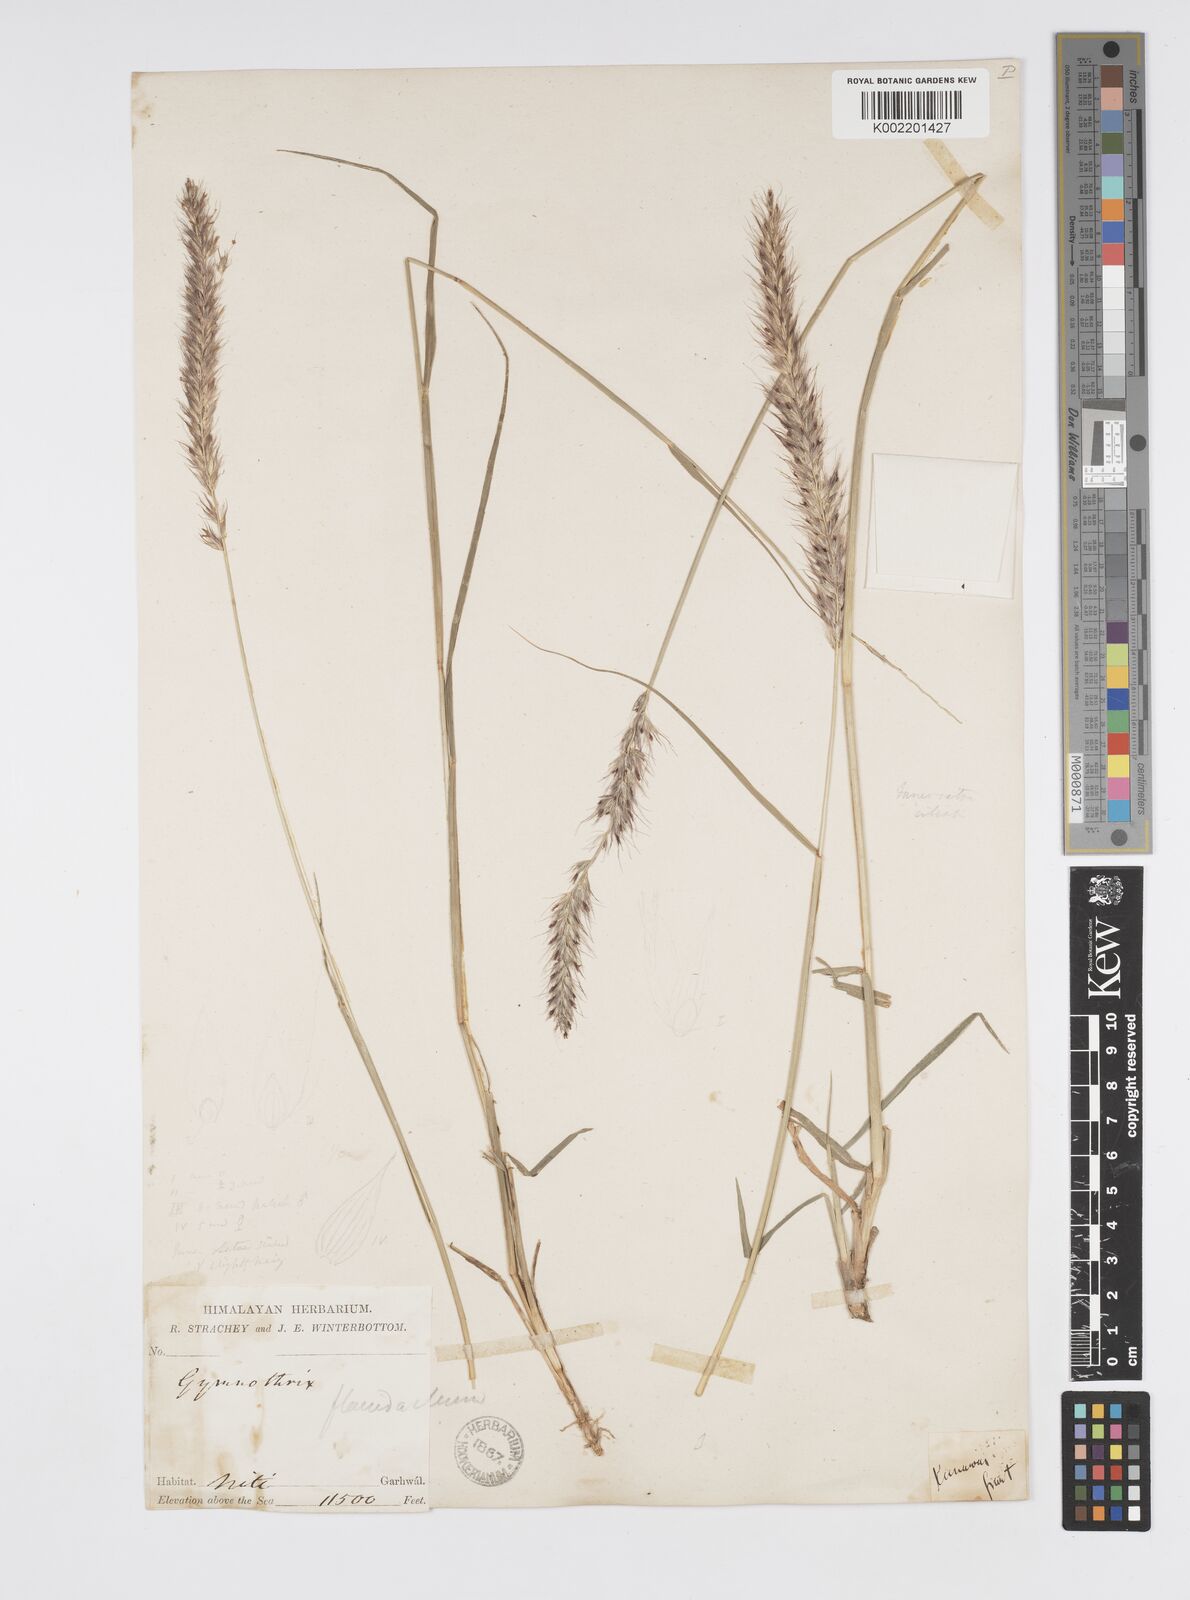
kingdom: Plantae
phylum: Tracheophyta
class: Liliopsida
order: Poales
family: Poaceae
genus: Cenchrus
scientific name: Cenchrus flaccidus
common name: Flaccid grass
